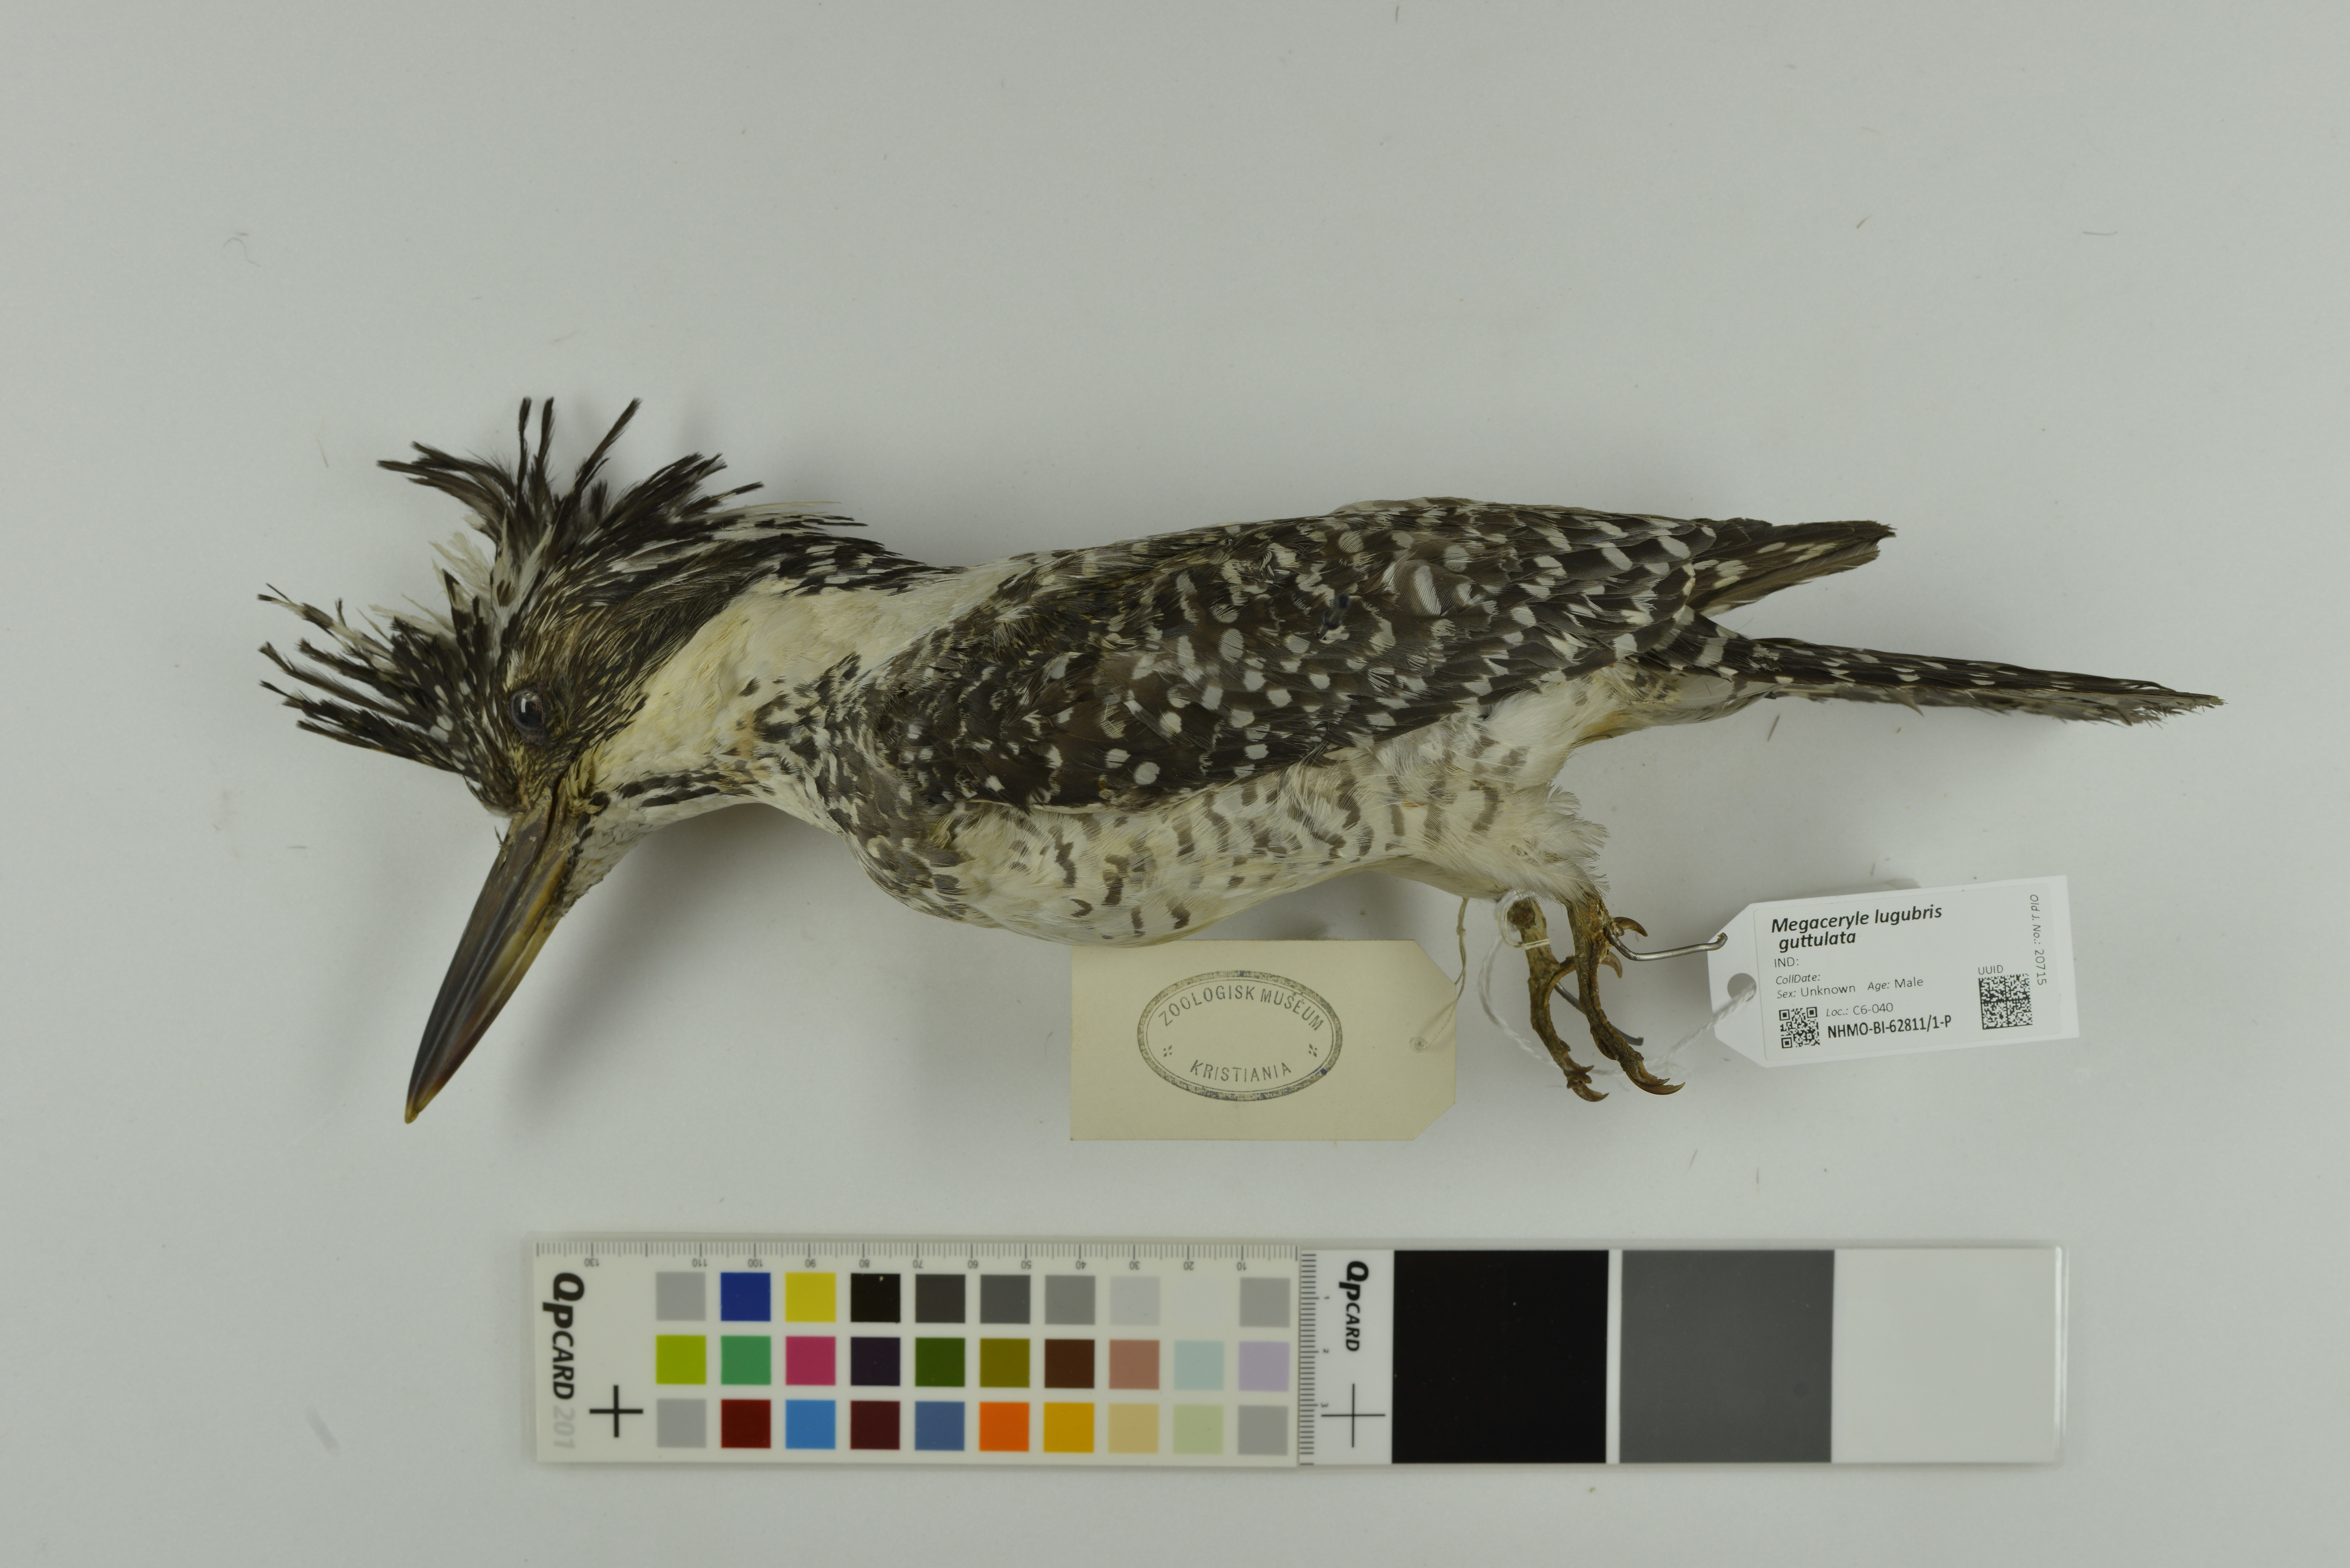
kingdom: Animalia
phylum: Chordata
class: Aves
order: Coraciiformes
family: Alcedinidae
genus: Megaceryle
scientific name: Megaceryle lugubris
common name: Crested kingfisher
